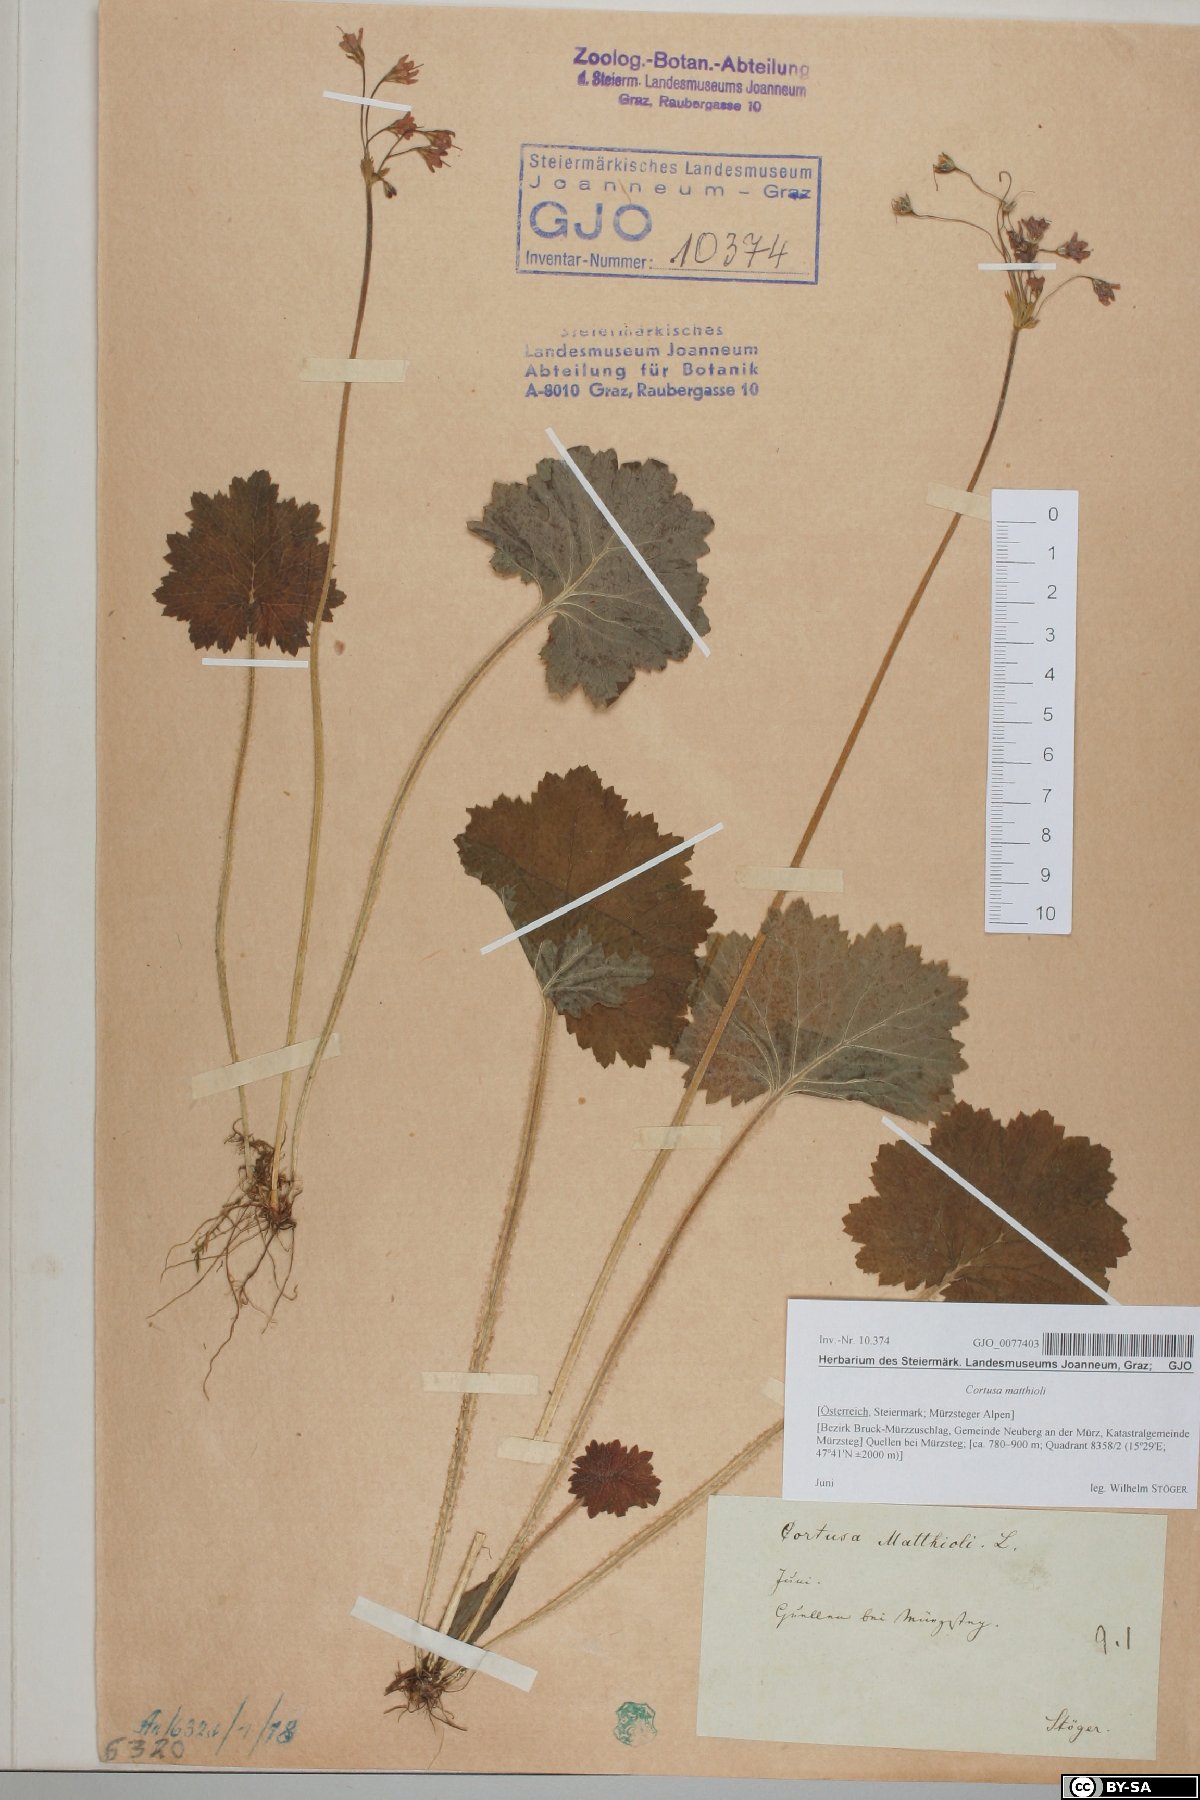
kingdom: Plantae
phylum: Tracheophyta
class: Magnoliopsida
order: Ericales
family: Primulaceae
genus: Primula
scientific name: Primula matthioli
